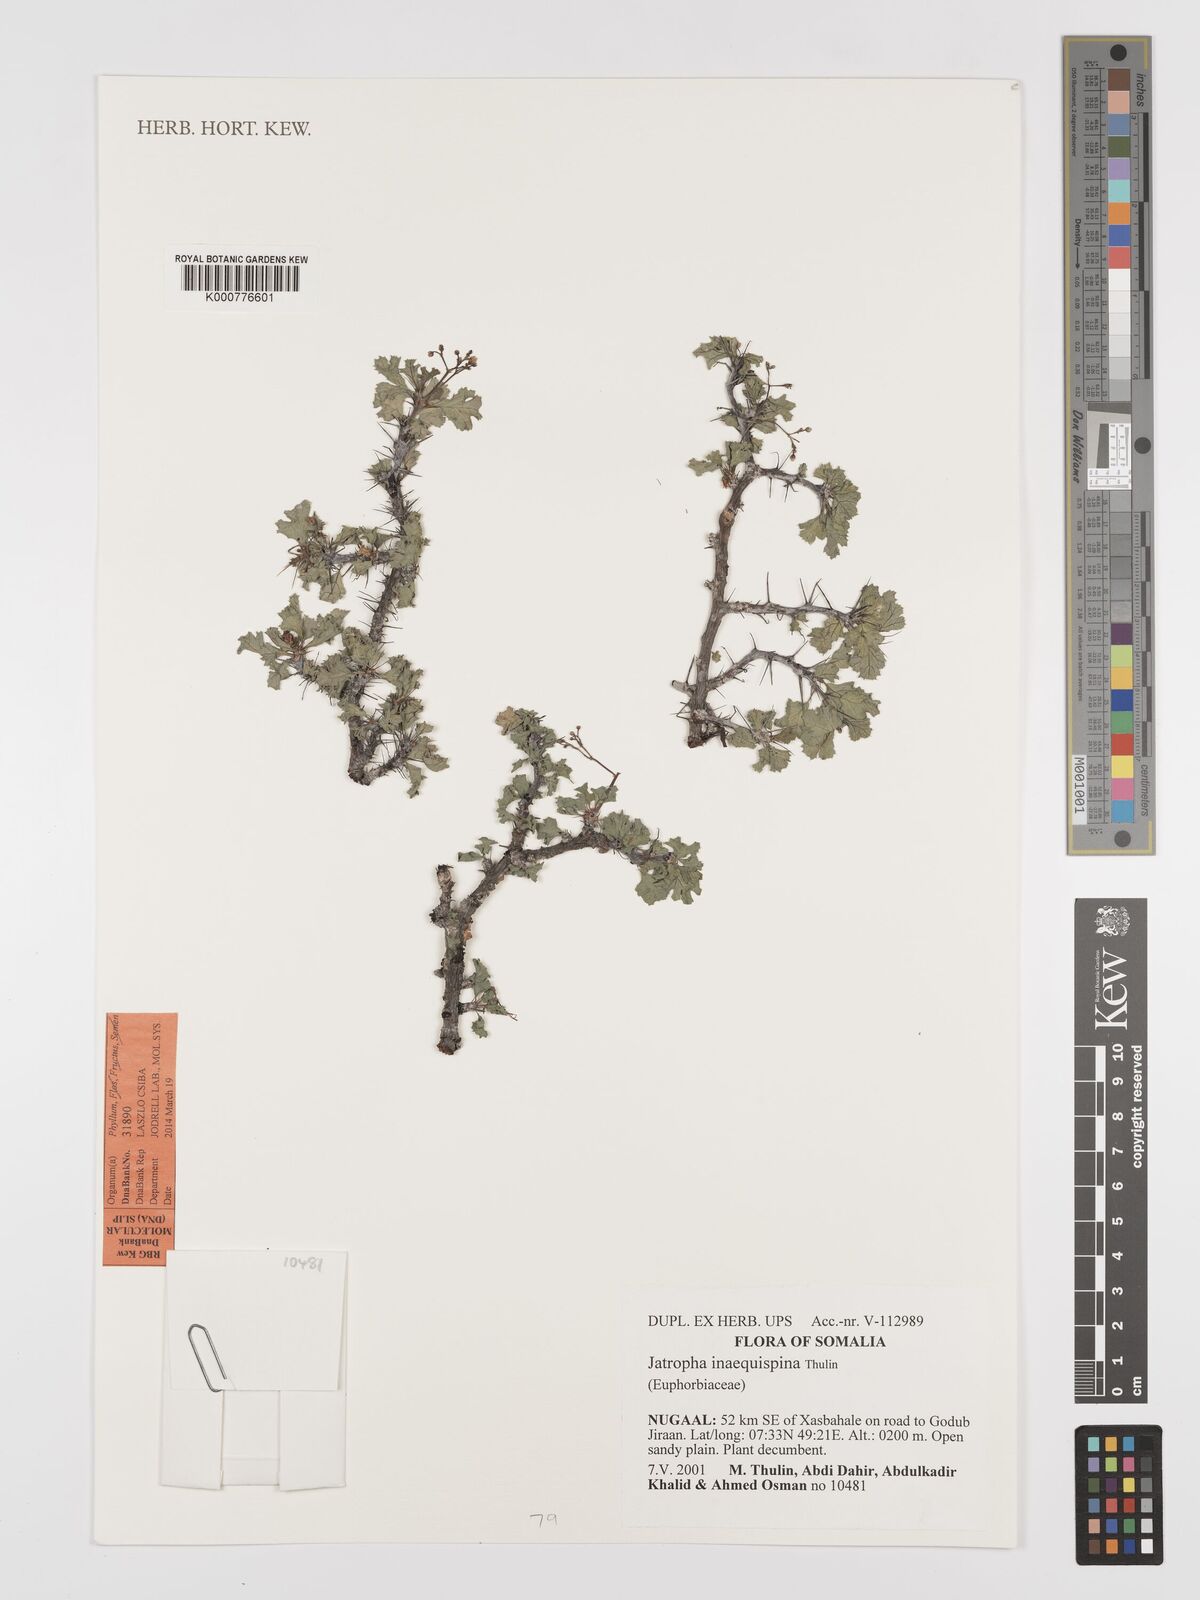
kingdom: Plantae
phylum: Tracheophyta
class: Magnoliopsida
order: Malpighiales
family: Euphorbiaceae
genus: Jatropha
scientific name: Jatropha inaequispina
